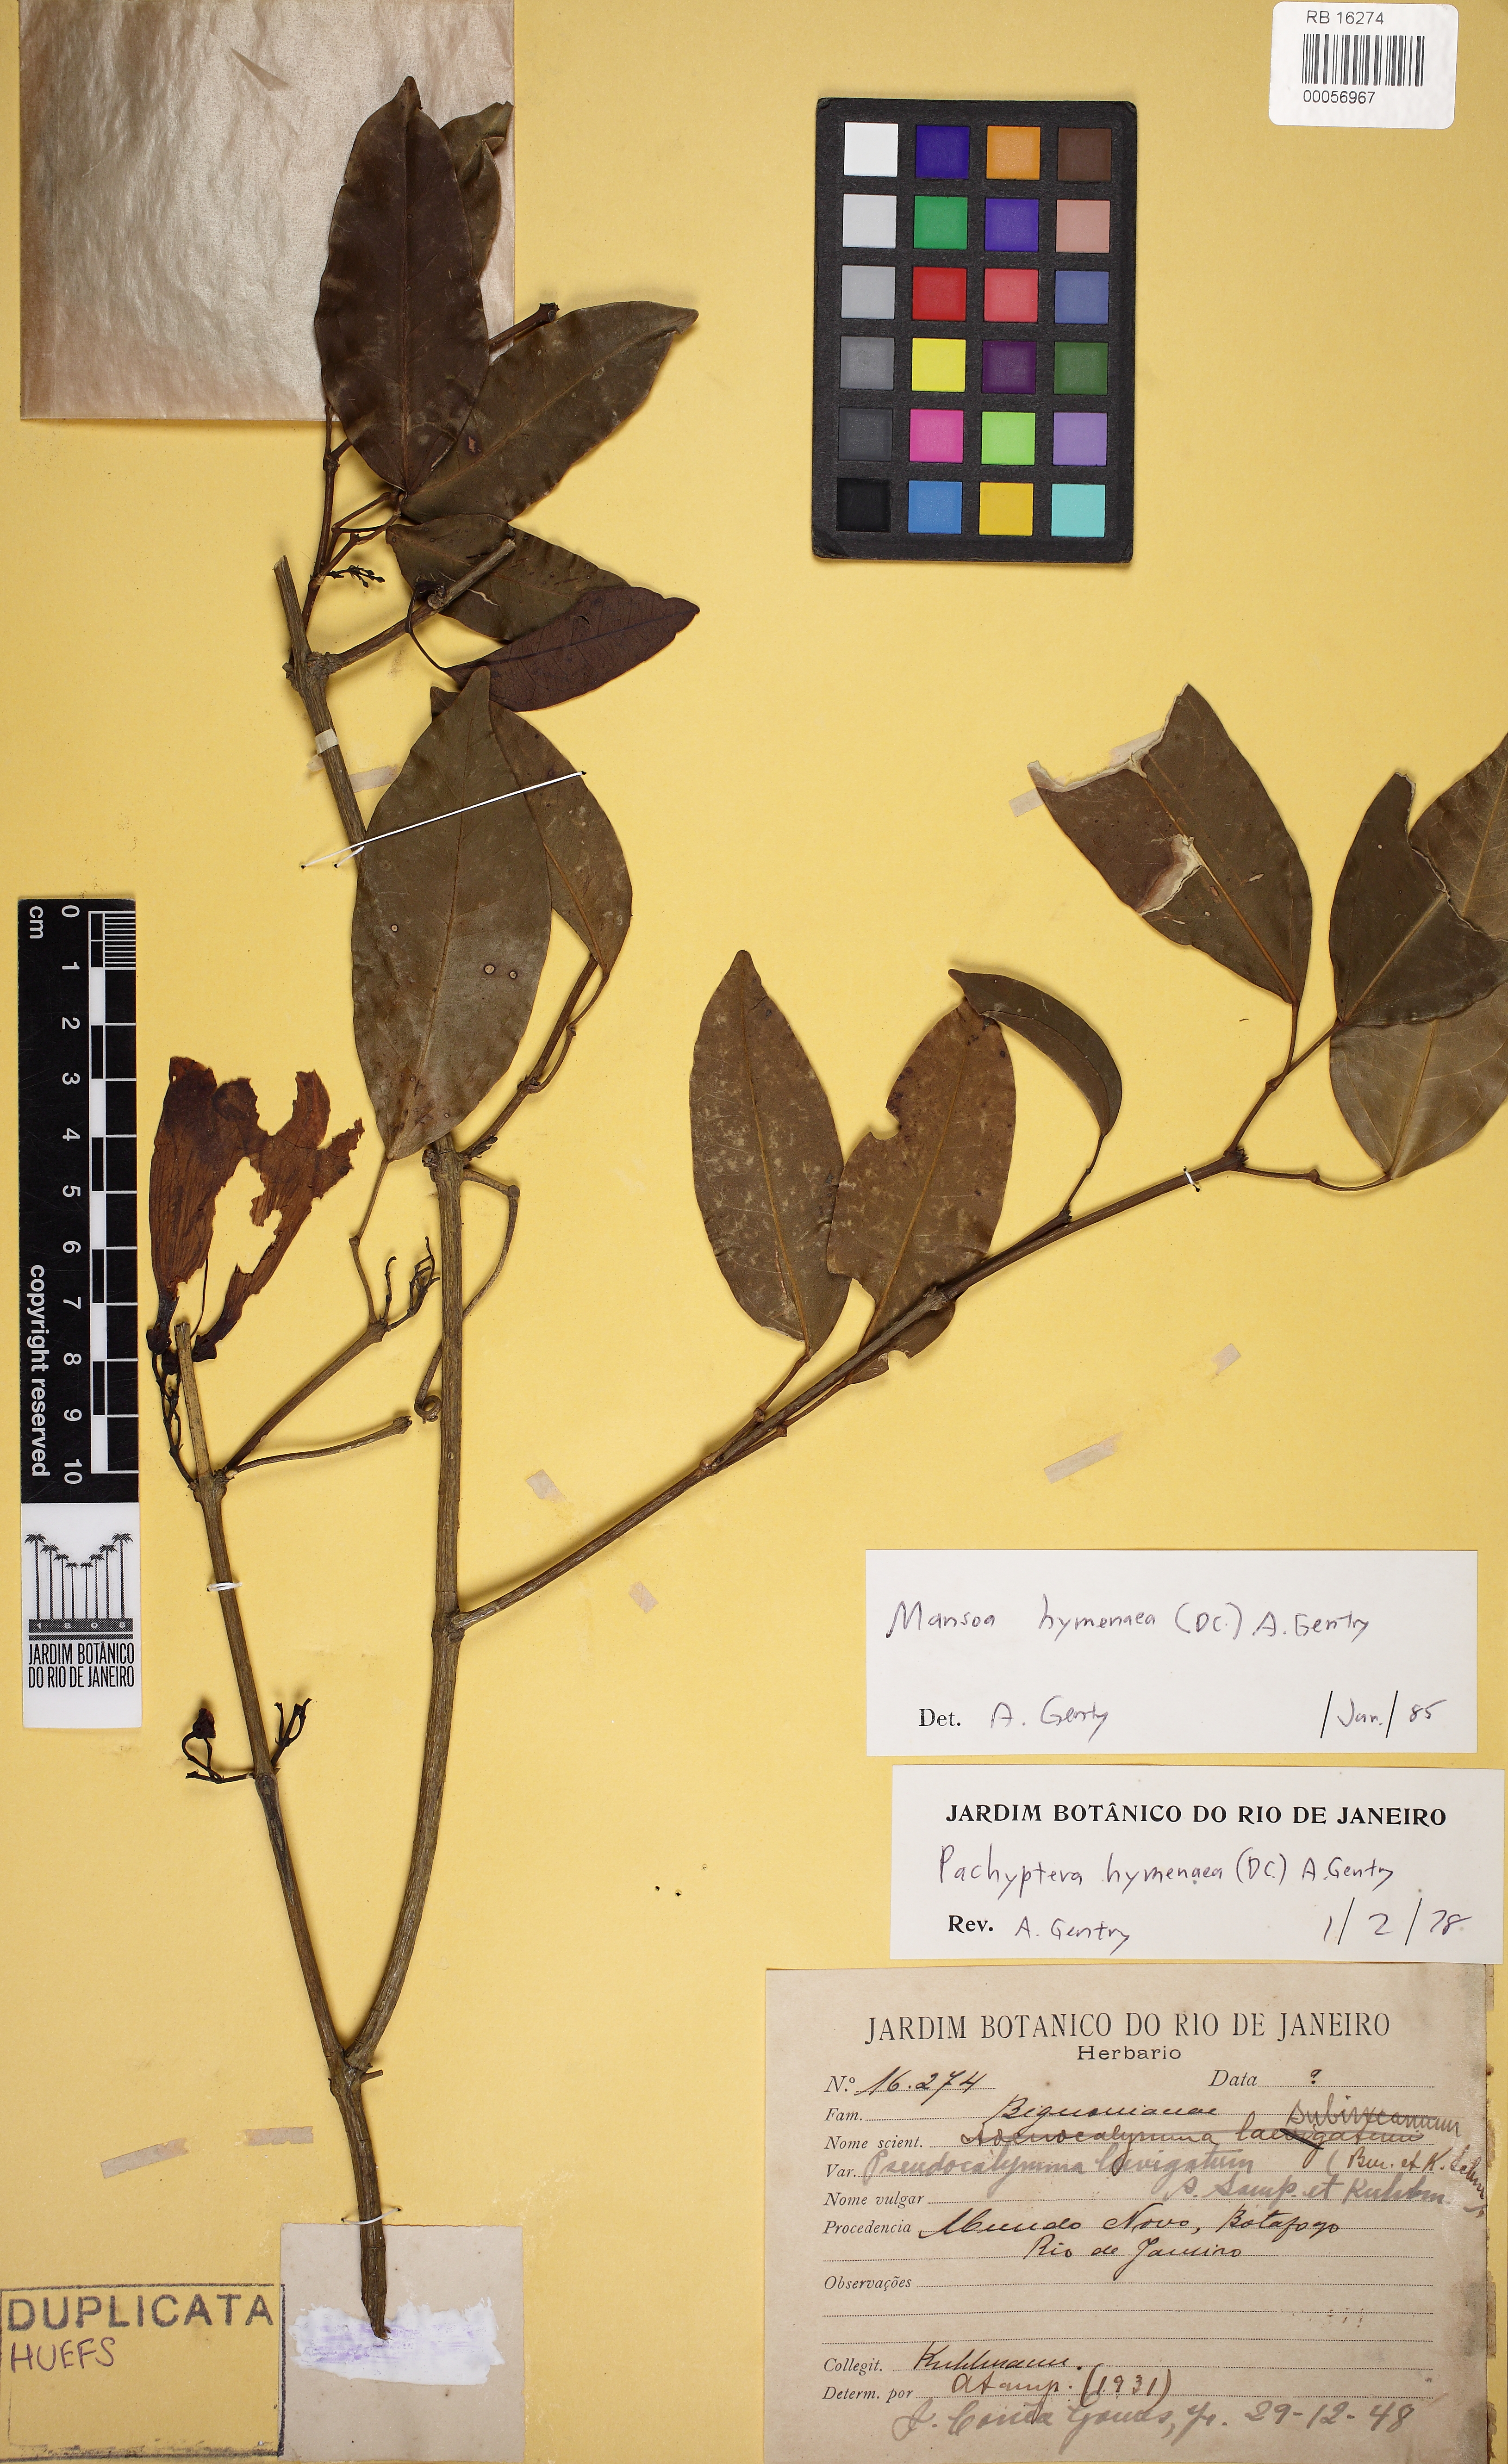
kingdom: Plantae
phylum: Tracheophyta
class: Magnoliopsida
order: Lamiales
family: Bignoniaceae
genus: Mansoa
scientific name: Mansoa hymenaea
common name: Membranous garlic vine
